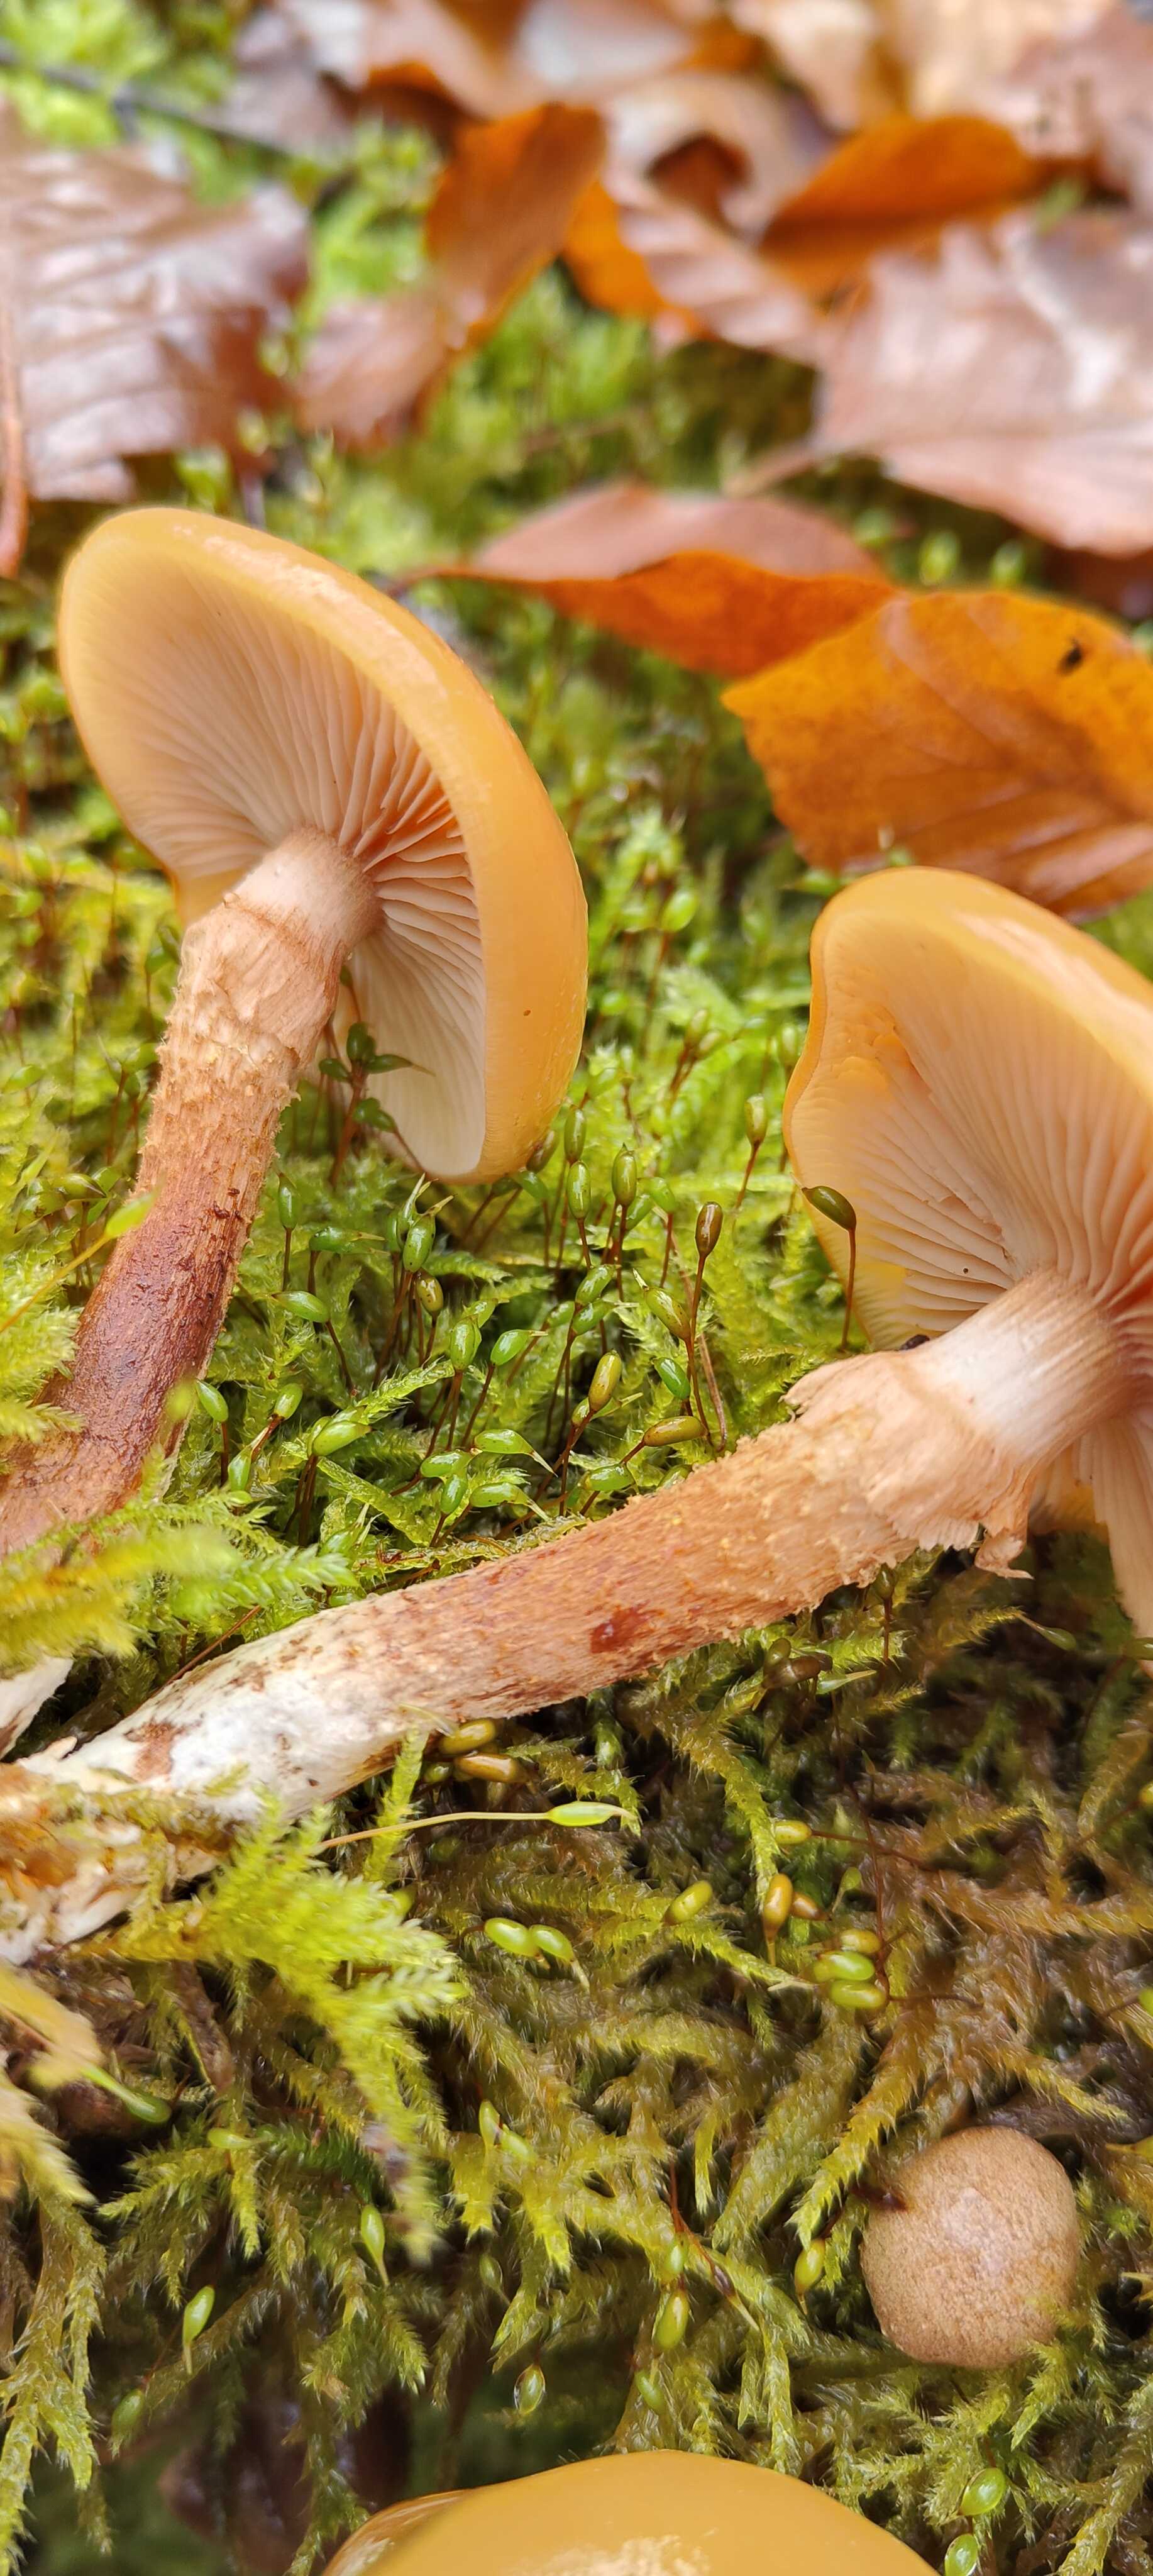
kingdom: Fungi
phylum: Basidiomycota
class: Agaricomycetes
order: Agaricales
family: Strophariaceae
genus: Kuehneromyces
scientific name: Kuehneromyces mutabilis
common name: foranderlig skælhat
